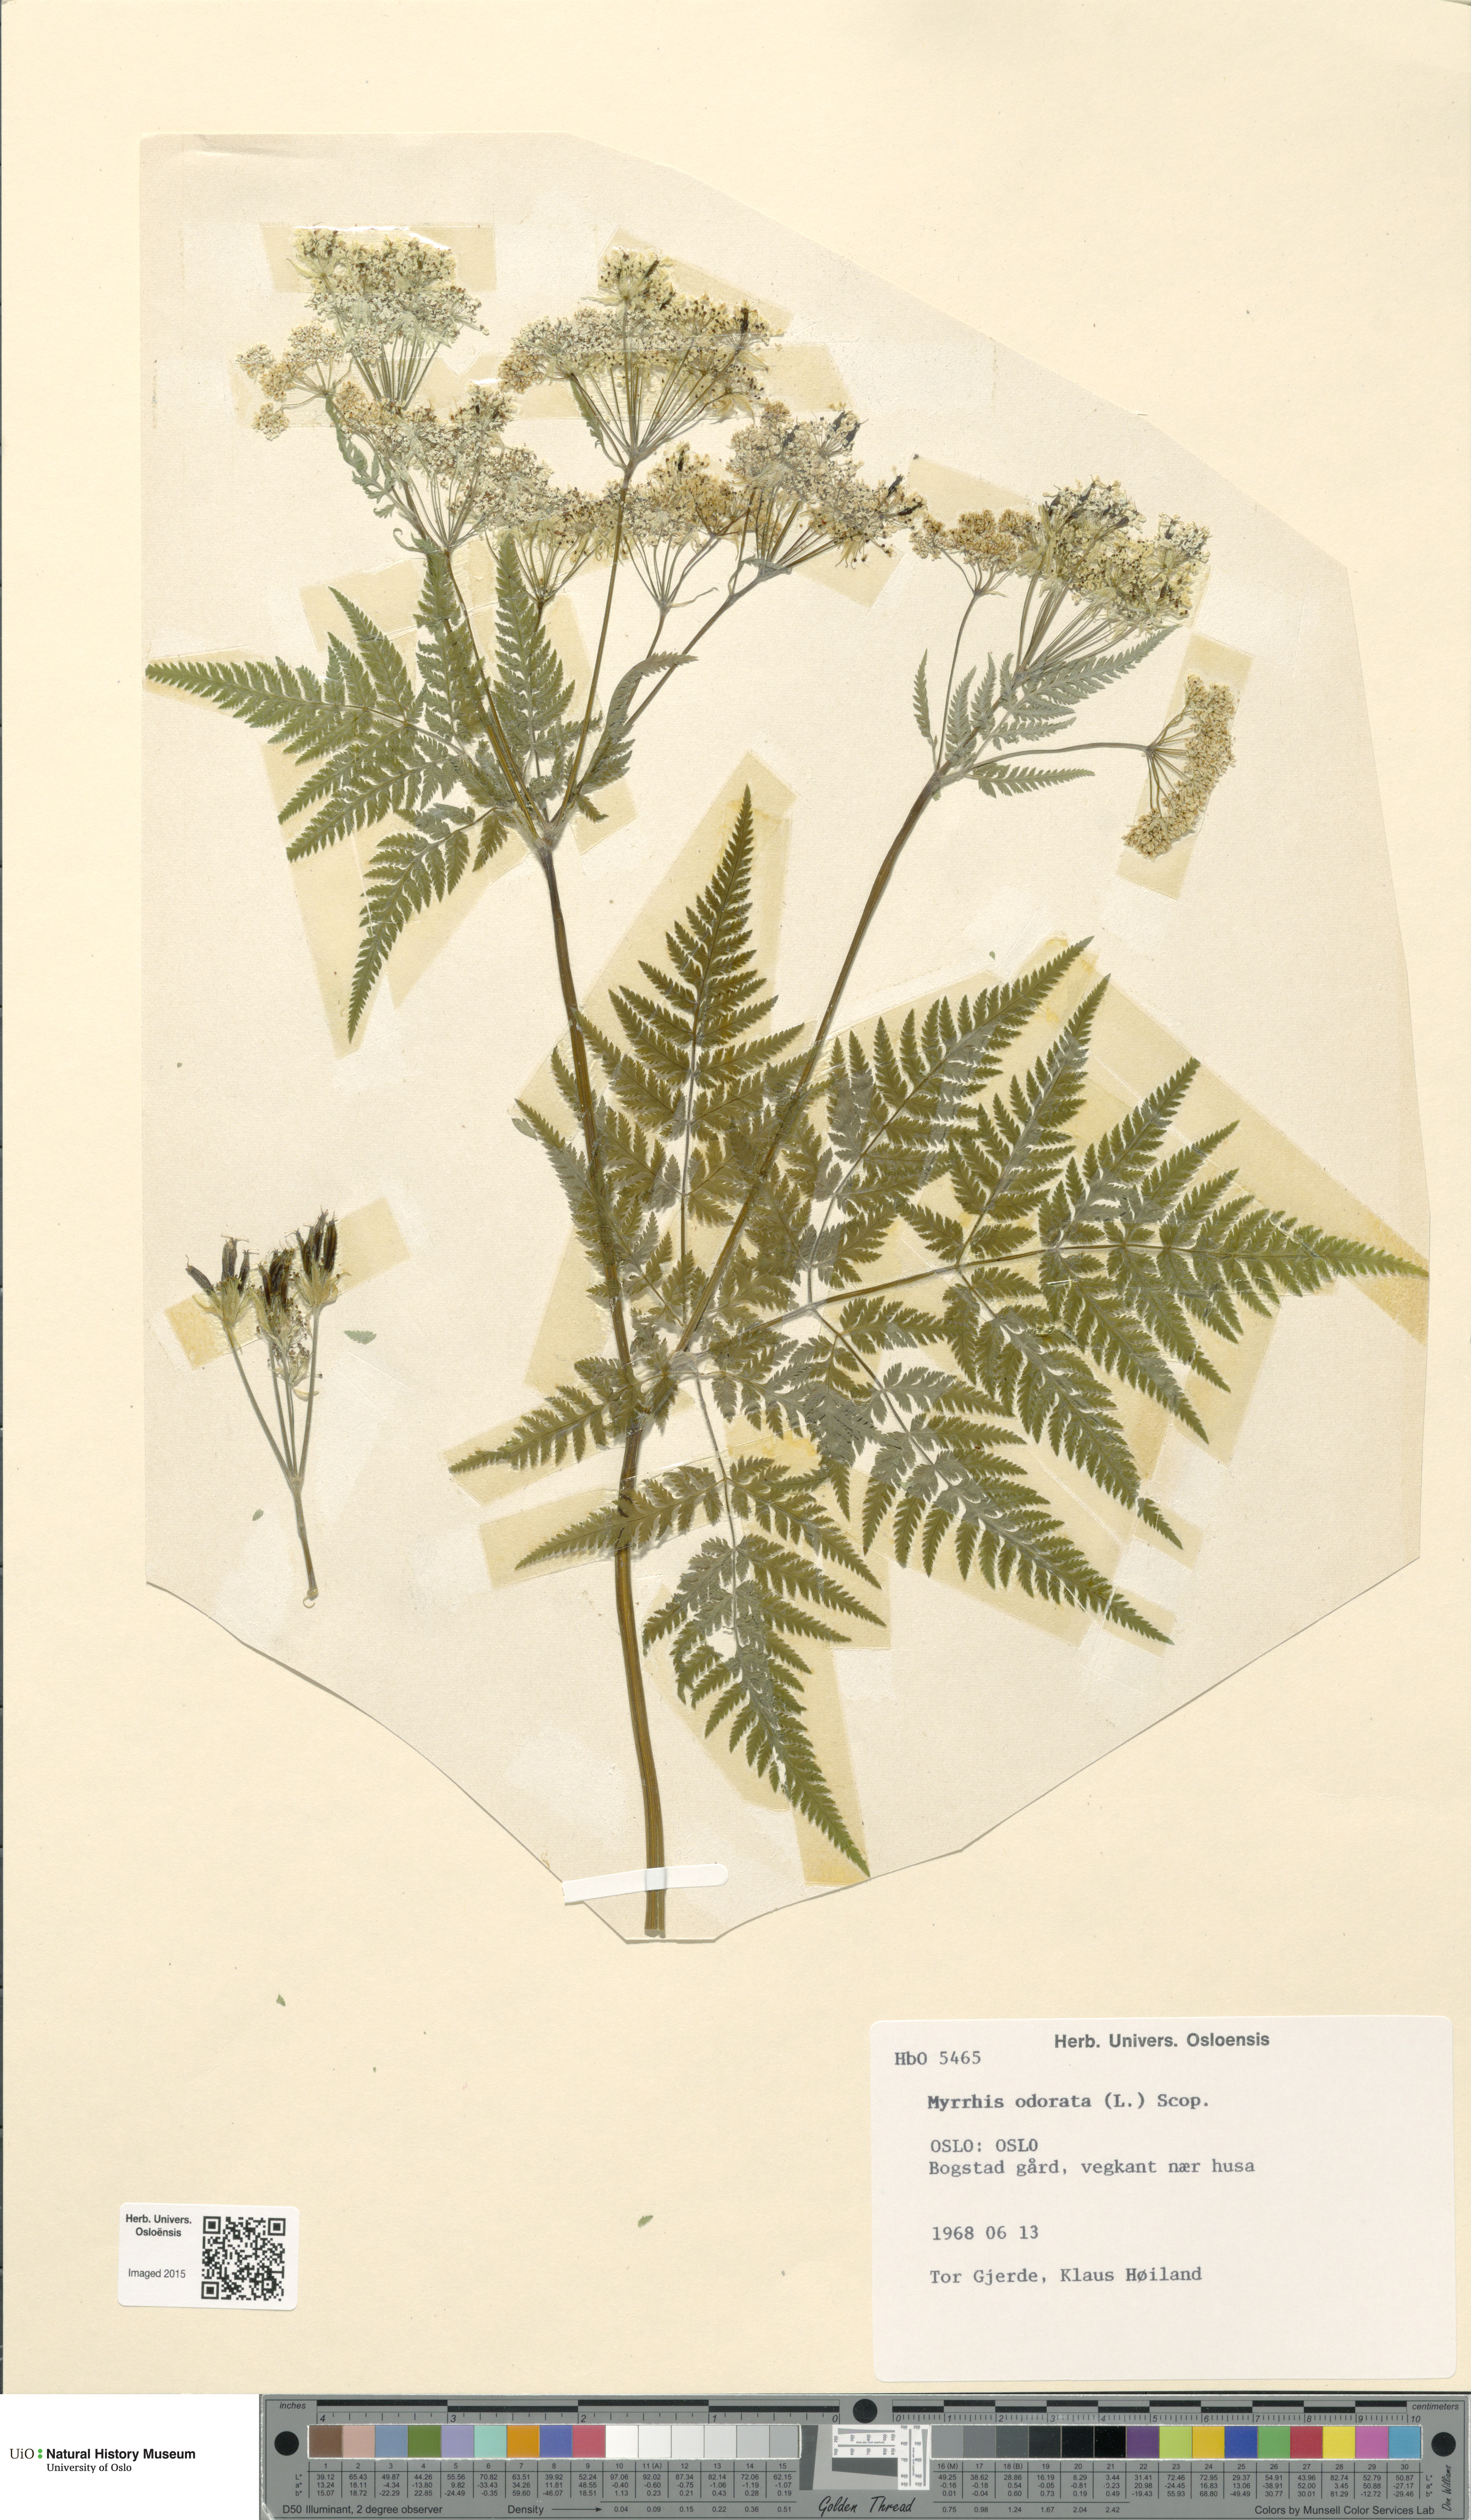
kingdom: Plantae
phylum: Tracheophyta
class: Magnoliopsida
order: Apiales
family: Apiaceae
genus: Myrrhis
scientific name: Myrrhis odorata
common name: Sweet cicely
